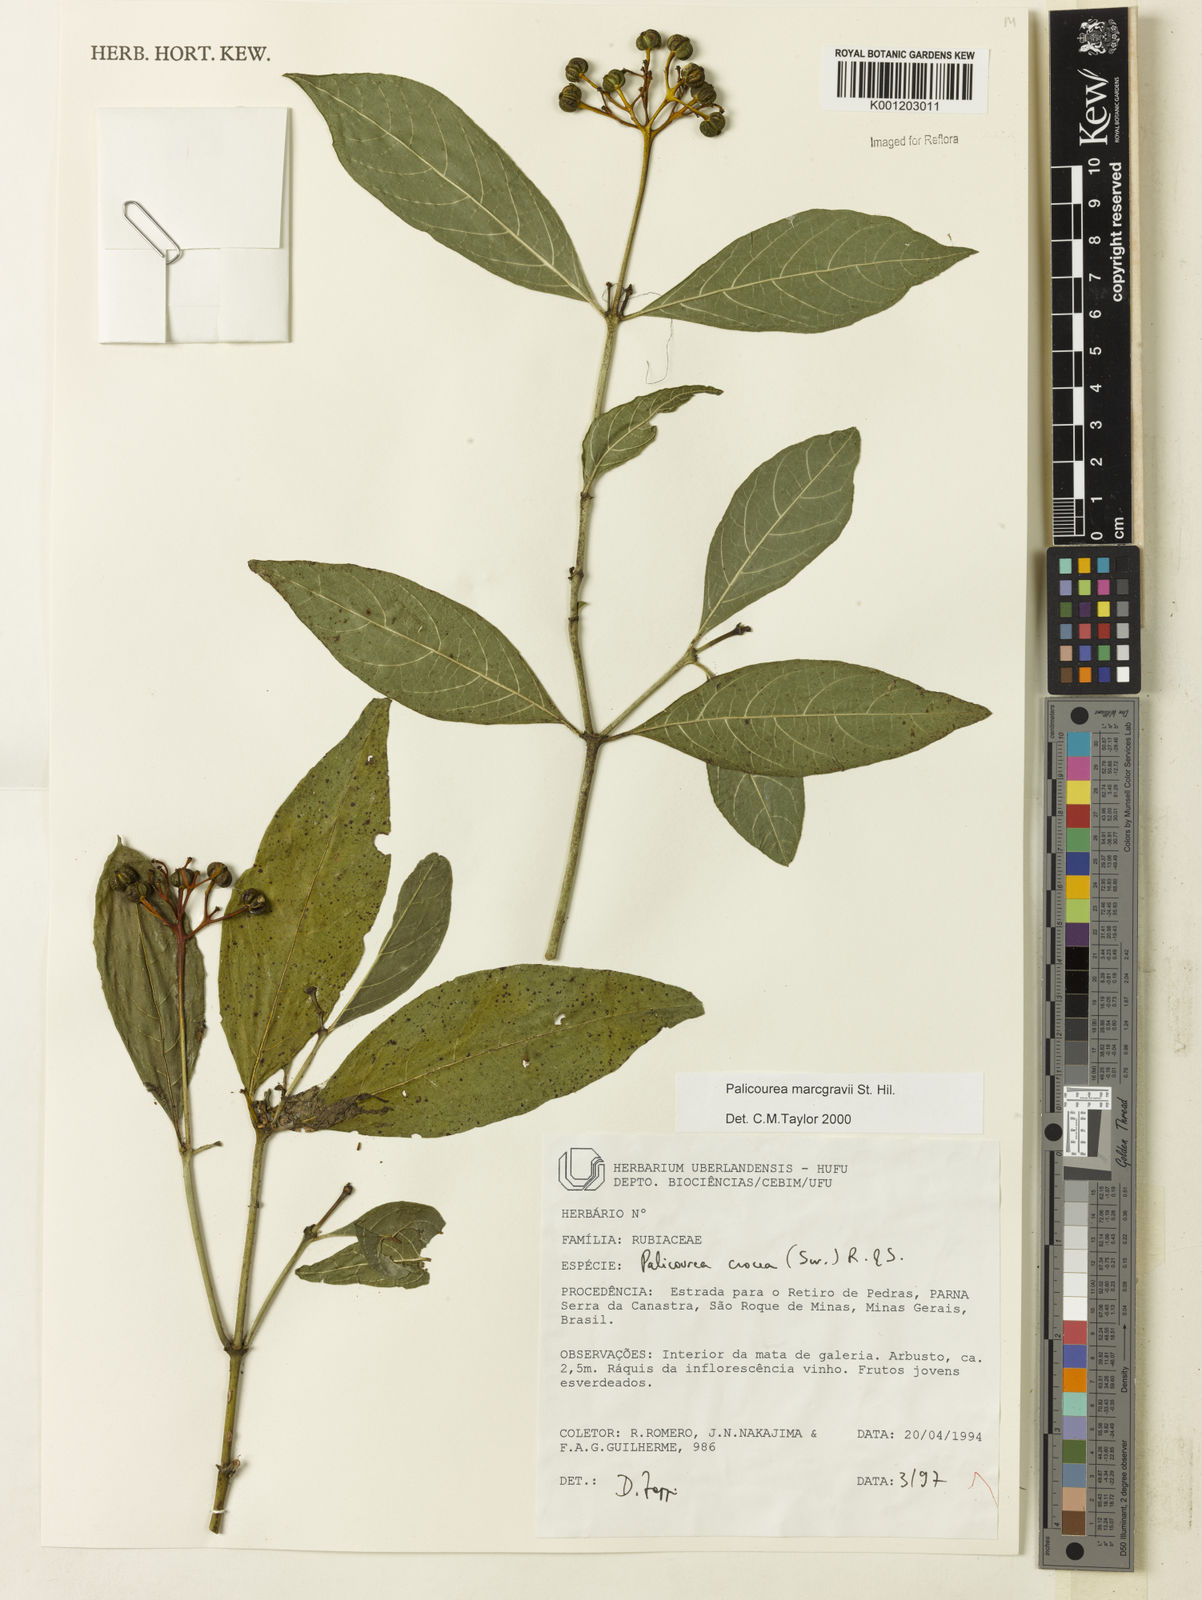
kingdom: Plantae
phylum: Tracheophyta
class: Magnoliopsida
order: Gentianales
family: Rubiaceae
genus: Palicourea
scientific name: Palicourea marcgravii
